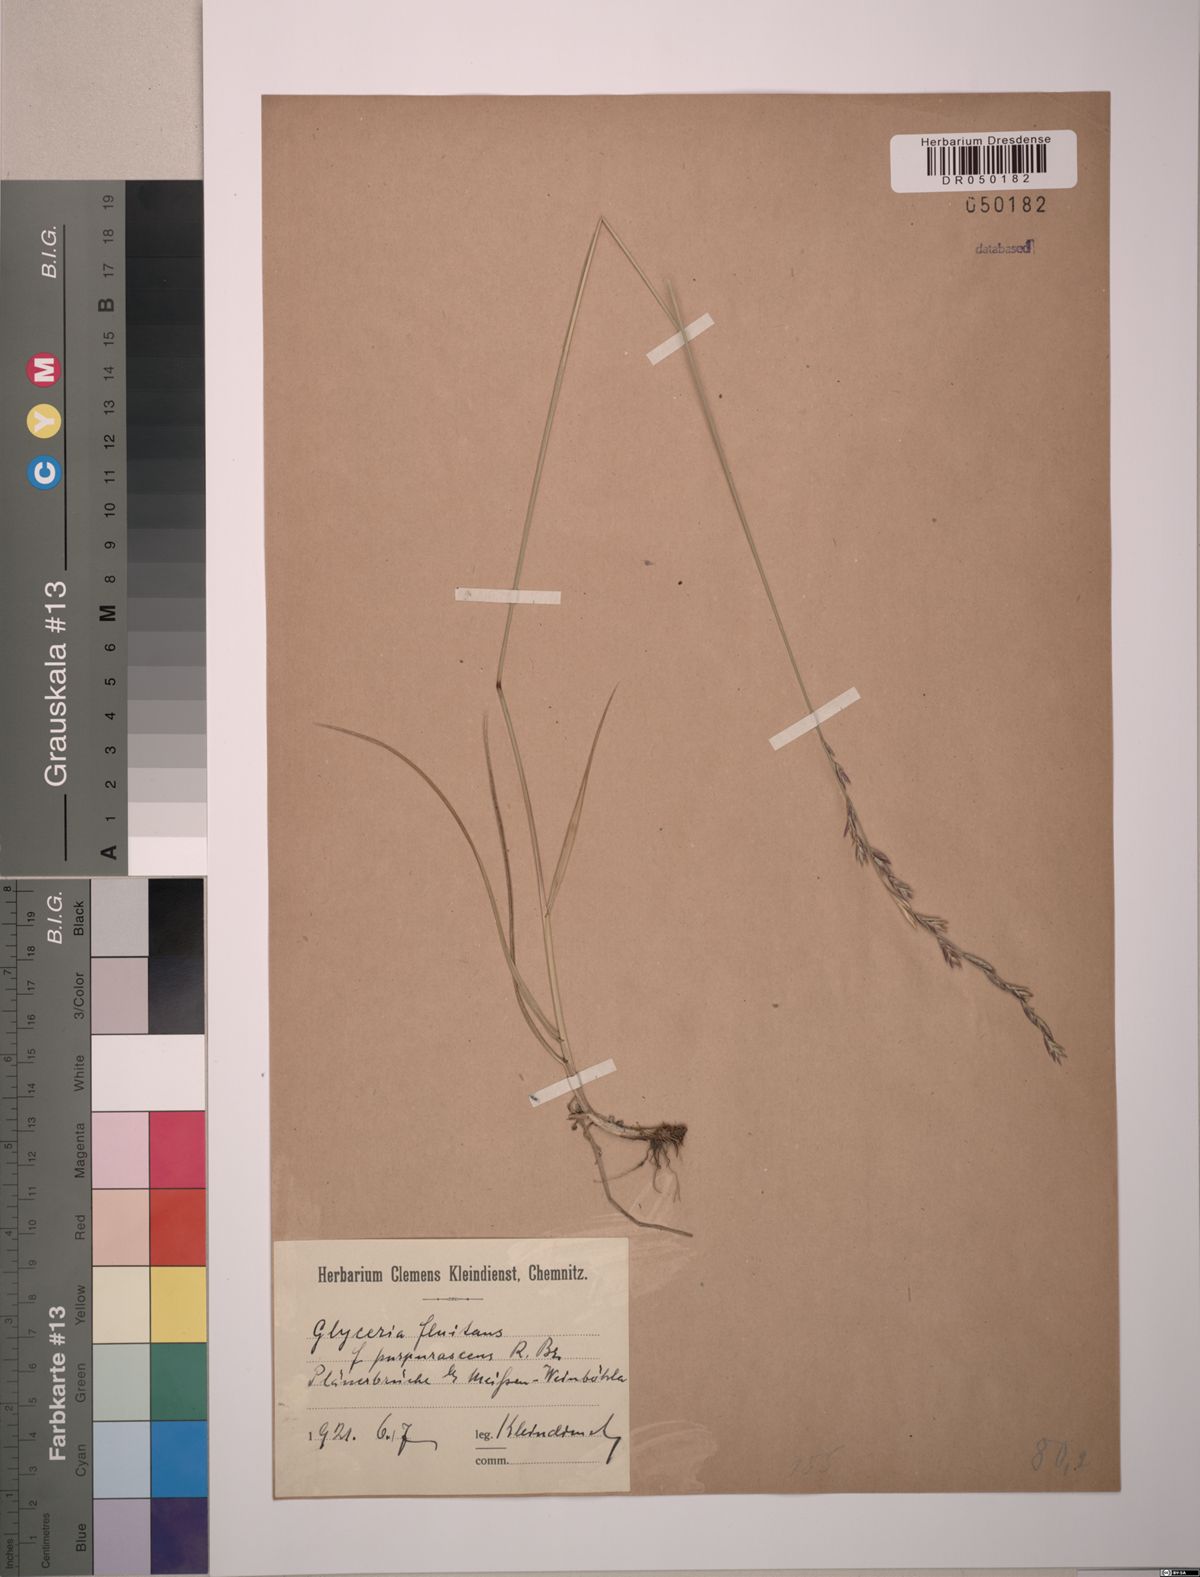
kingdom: Plantae
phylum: Tracheophyta
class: Liliopsida
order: Poales
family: Poaceae
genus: Glyceria
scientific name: Glyceria fluitans
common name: Floating sweet-grass
